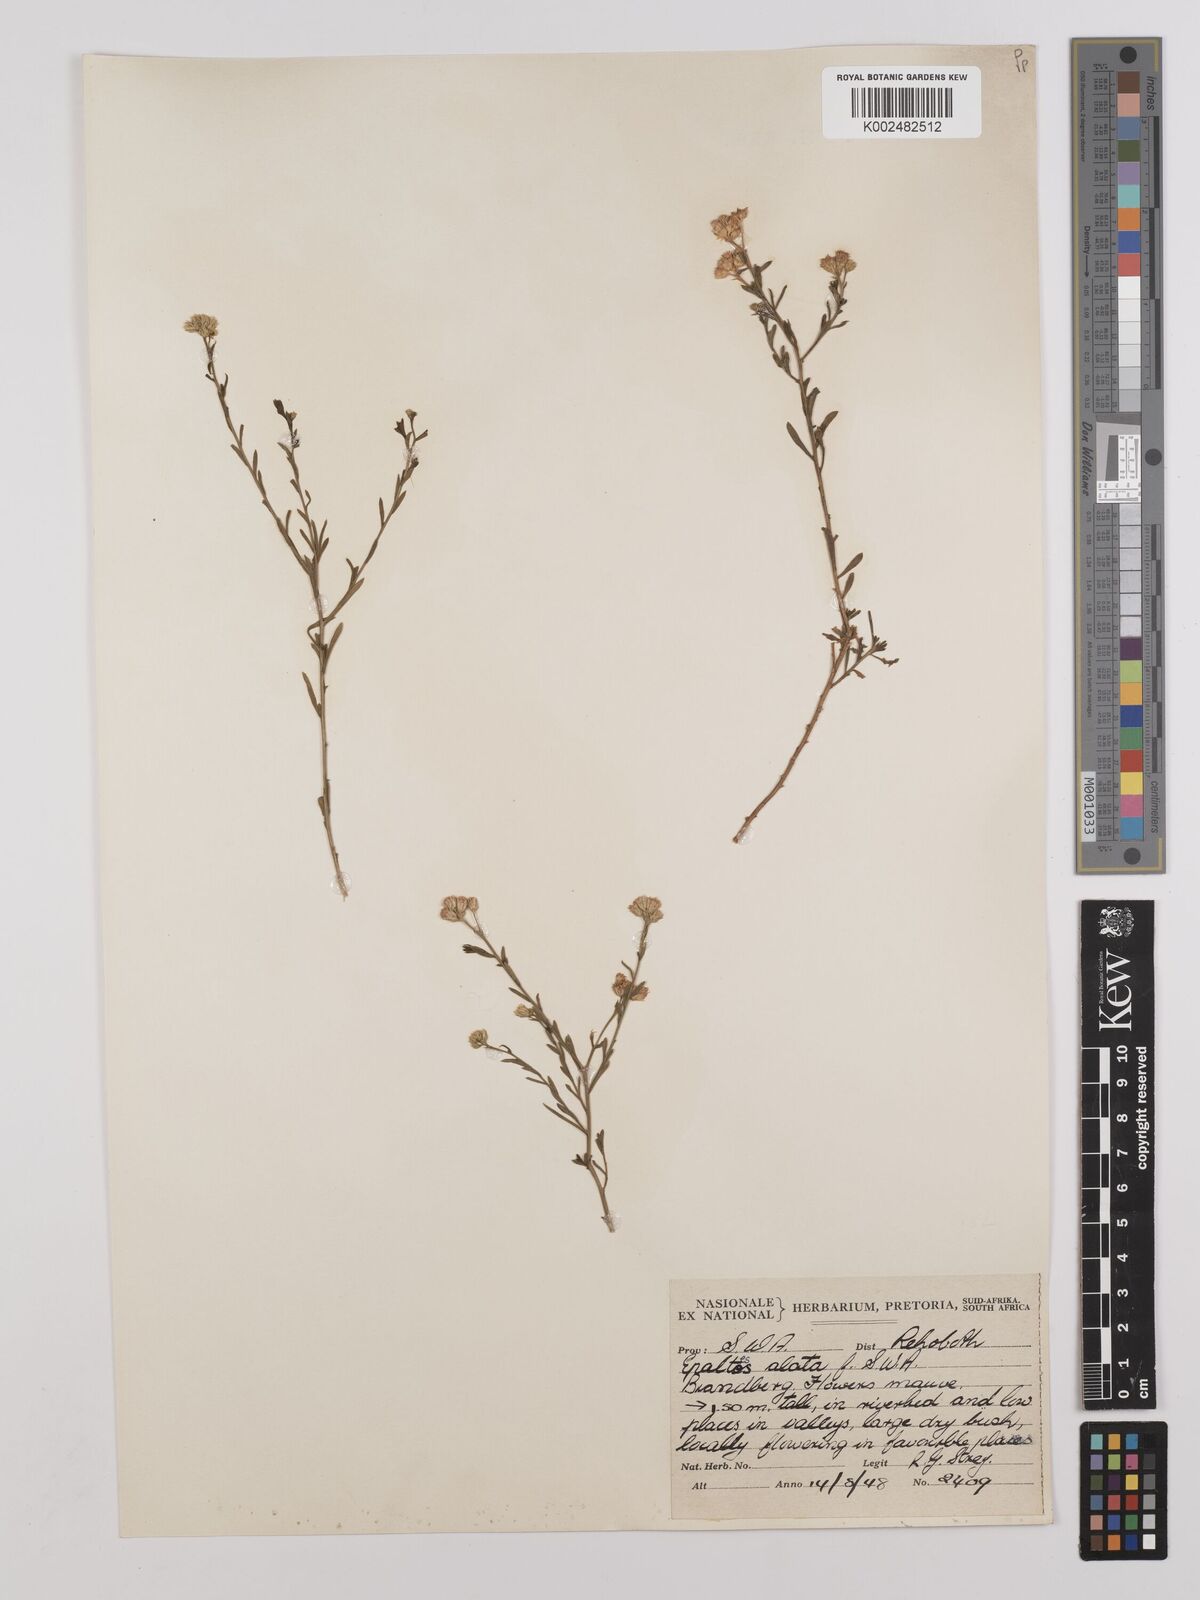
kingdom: Plantae
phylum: Tracheophyta
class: Magnoliopsida
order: Asterales
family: Asteraceae
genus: Litogyne
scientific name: Litogyne gariepina
